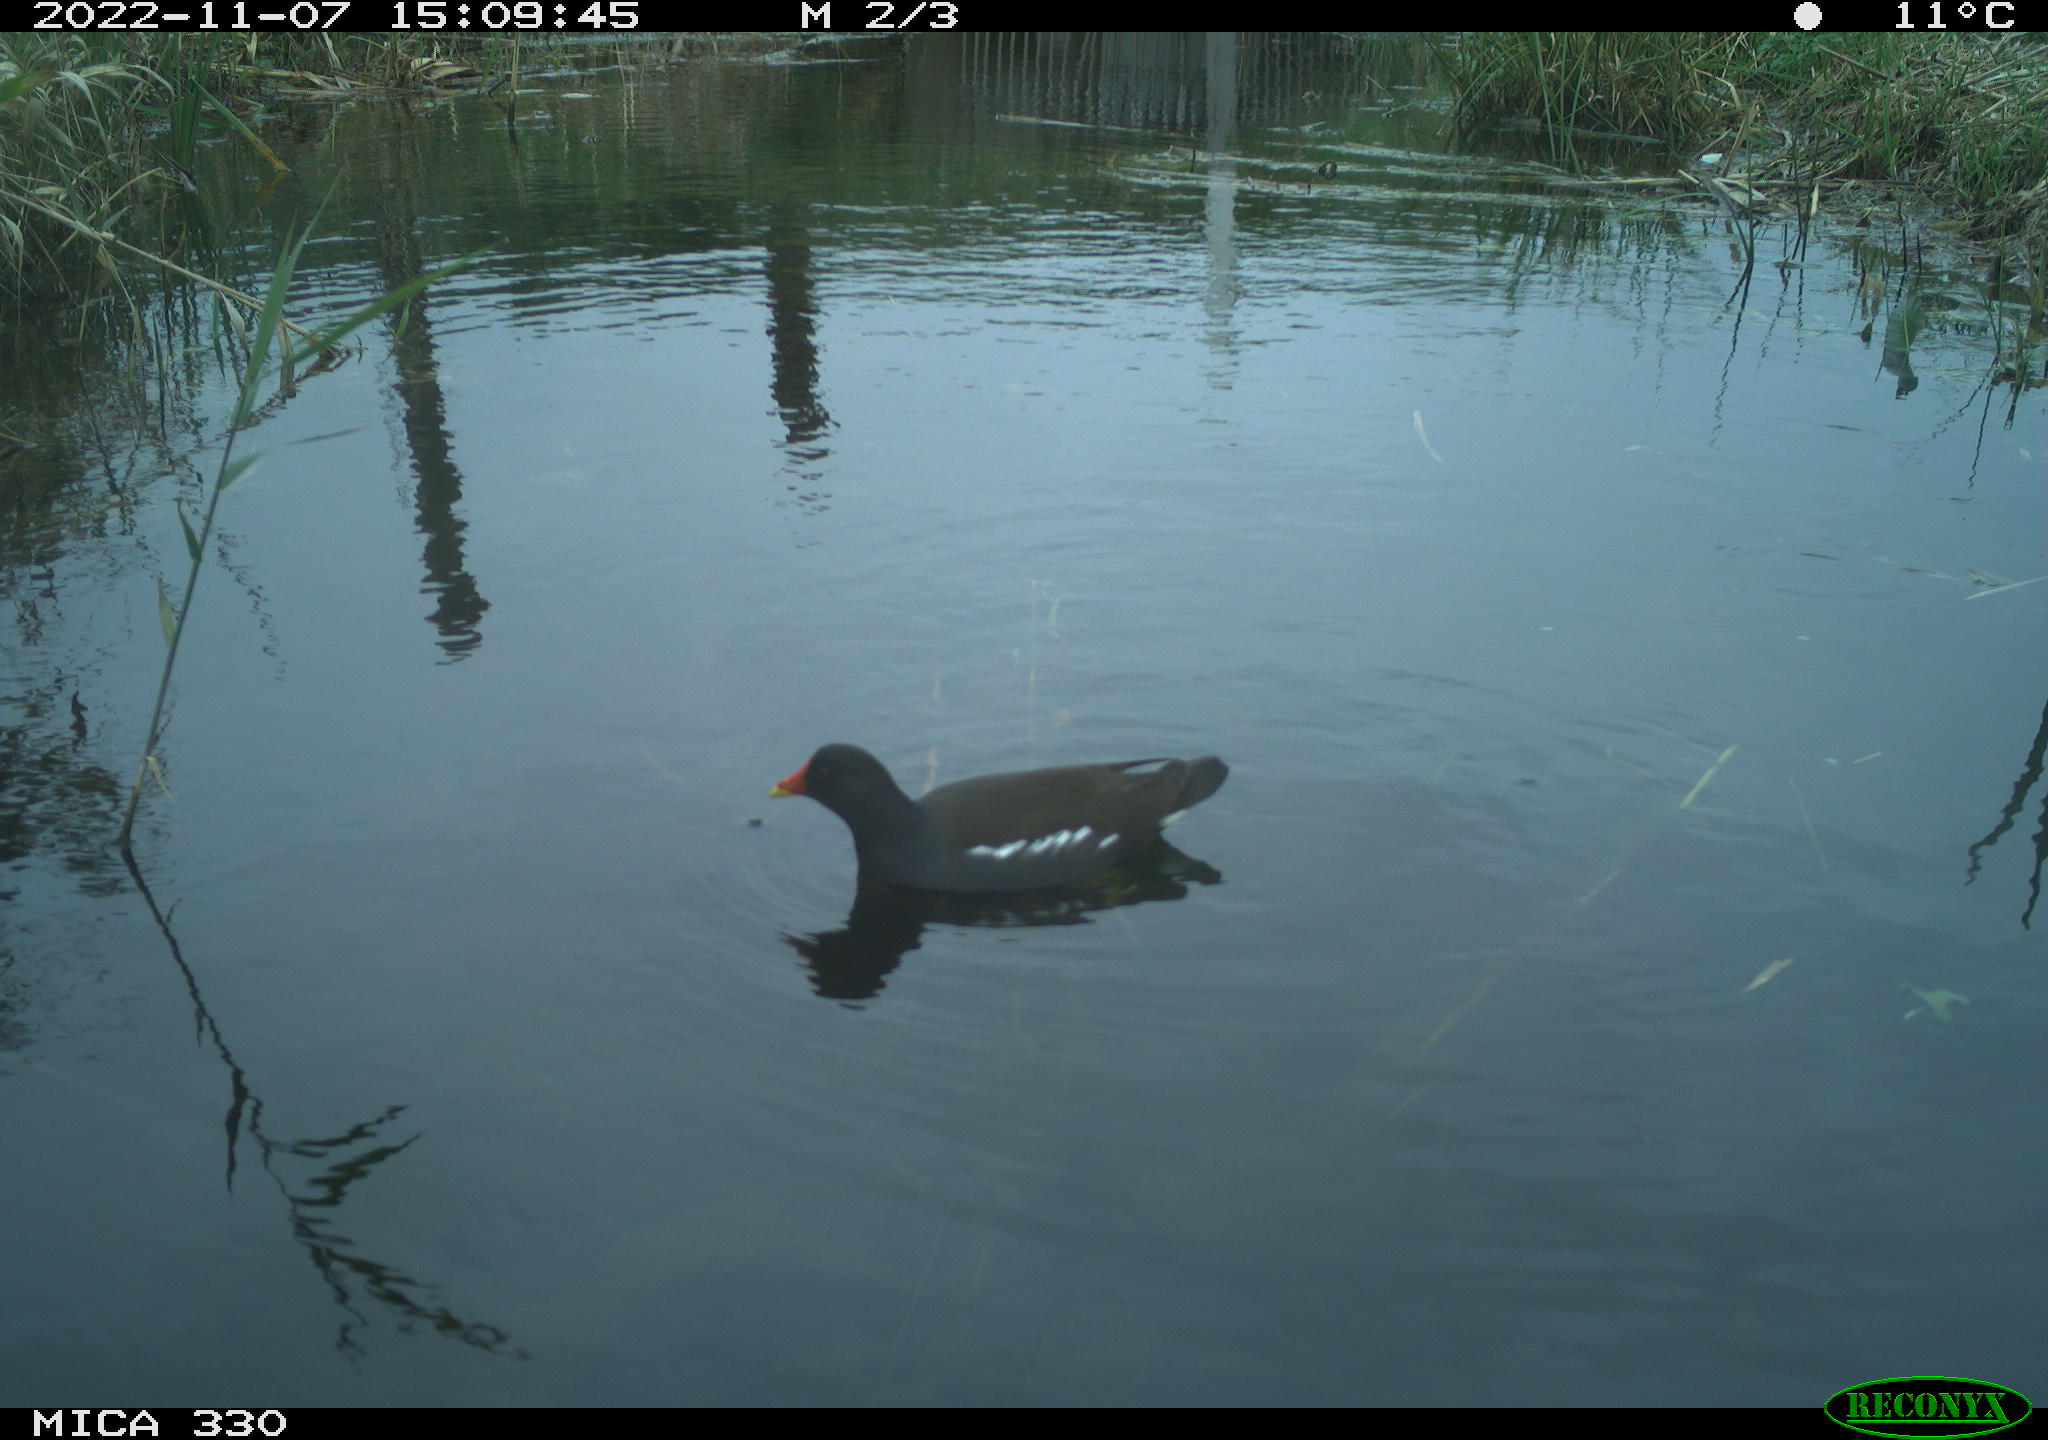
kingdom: Animalia
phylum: Chordata
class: Aves
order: Gruiformes
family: Rallidae
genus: Gallinula
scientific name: Gallinula chloropus
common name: Common moorhen
